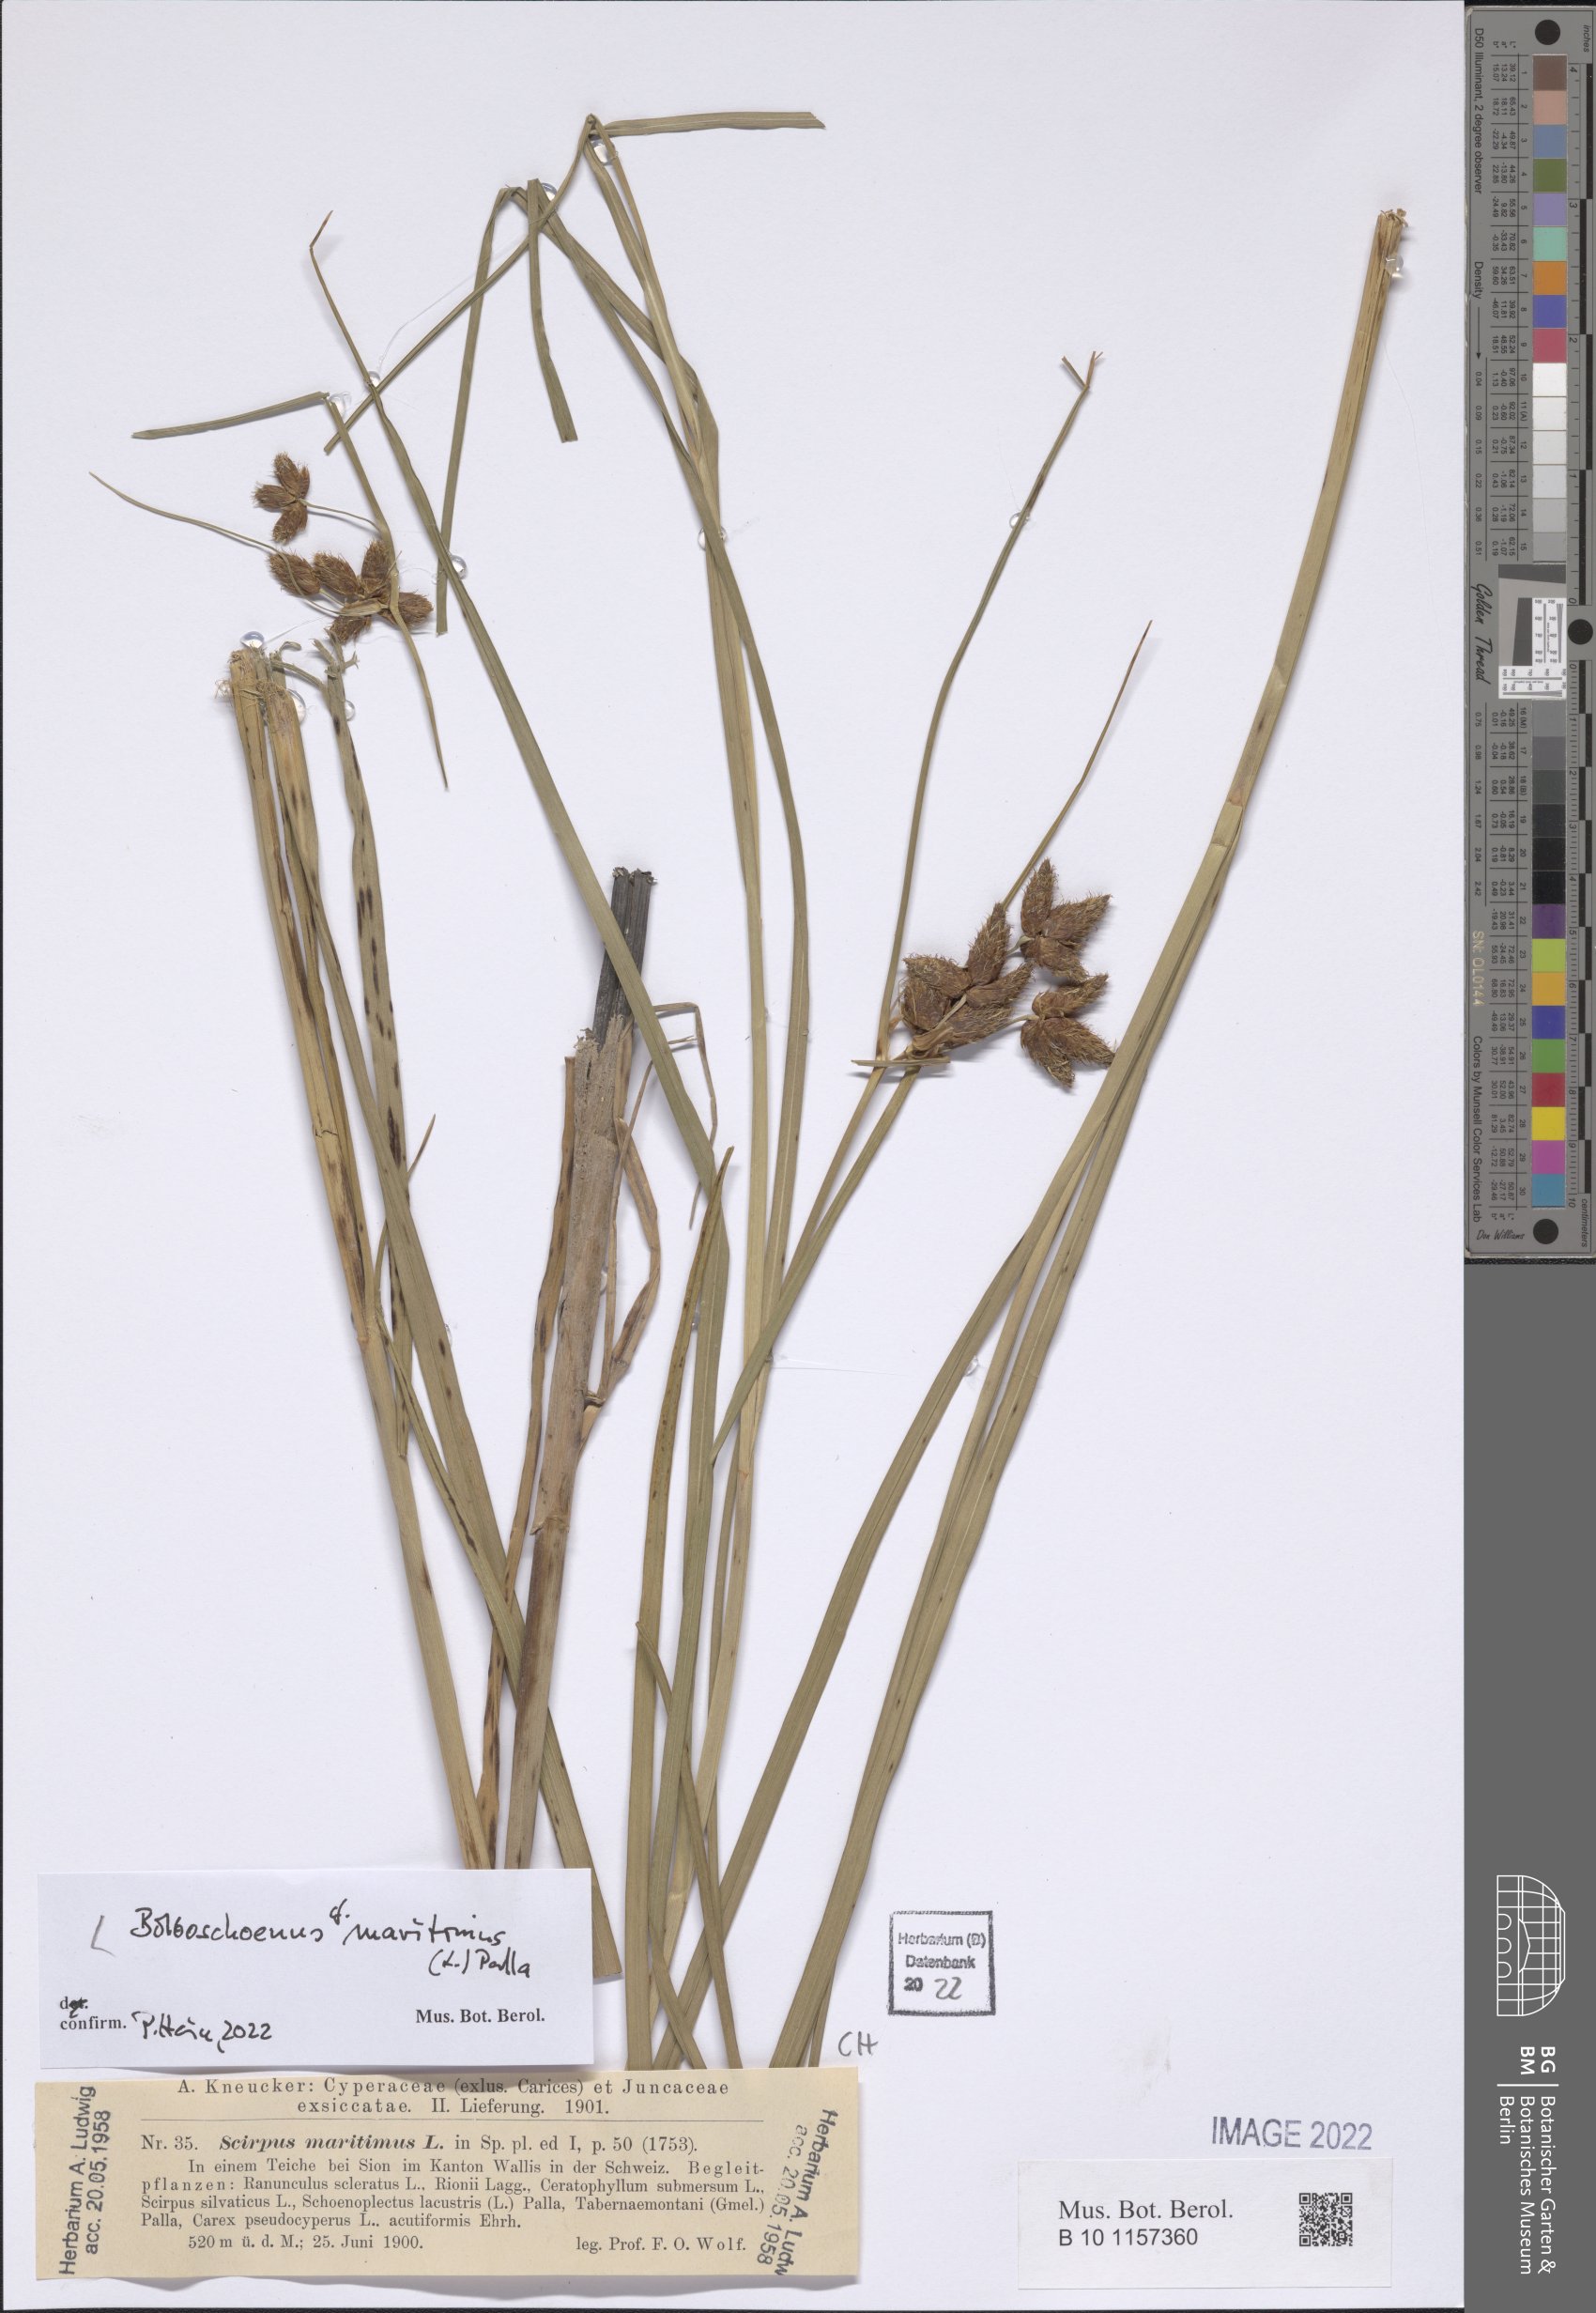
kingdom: Plantae
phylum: Tracheophyta
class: Liliopsida
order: Poales
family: Cyperaceae
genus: Bolboschoenus
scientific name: Bolboschoenus maritimus
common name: Sea club-rush
